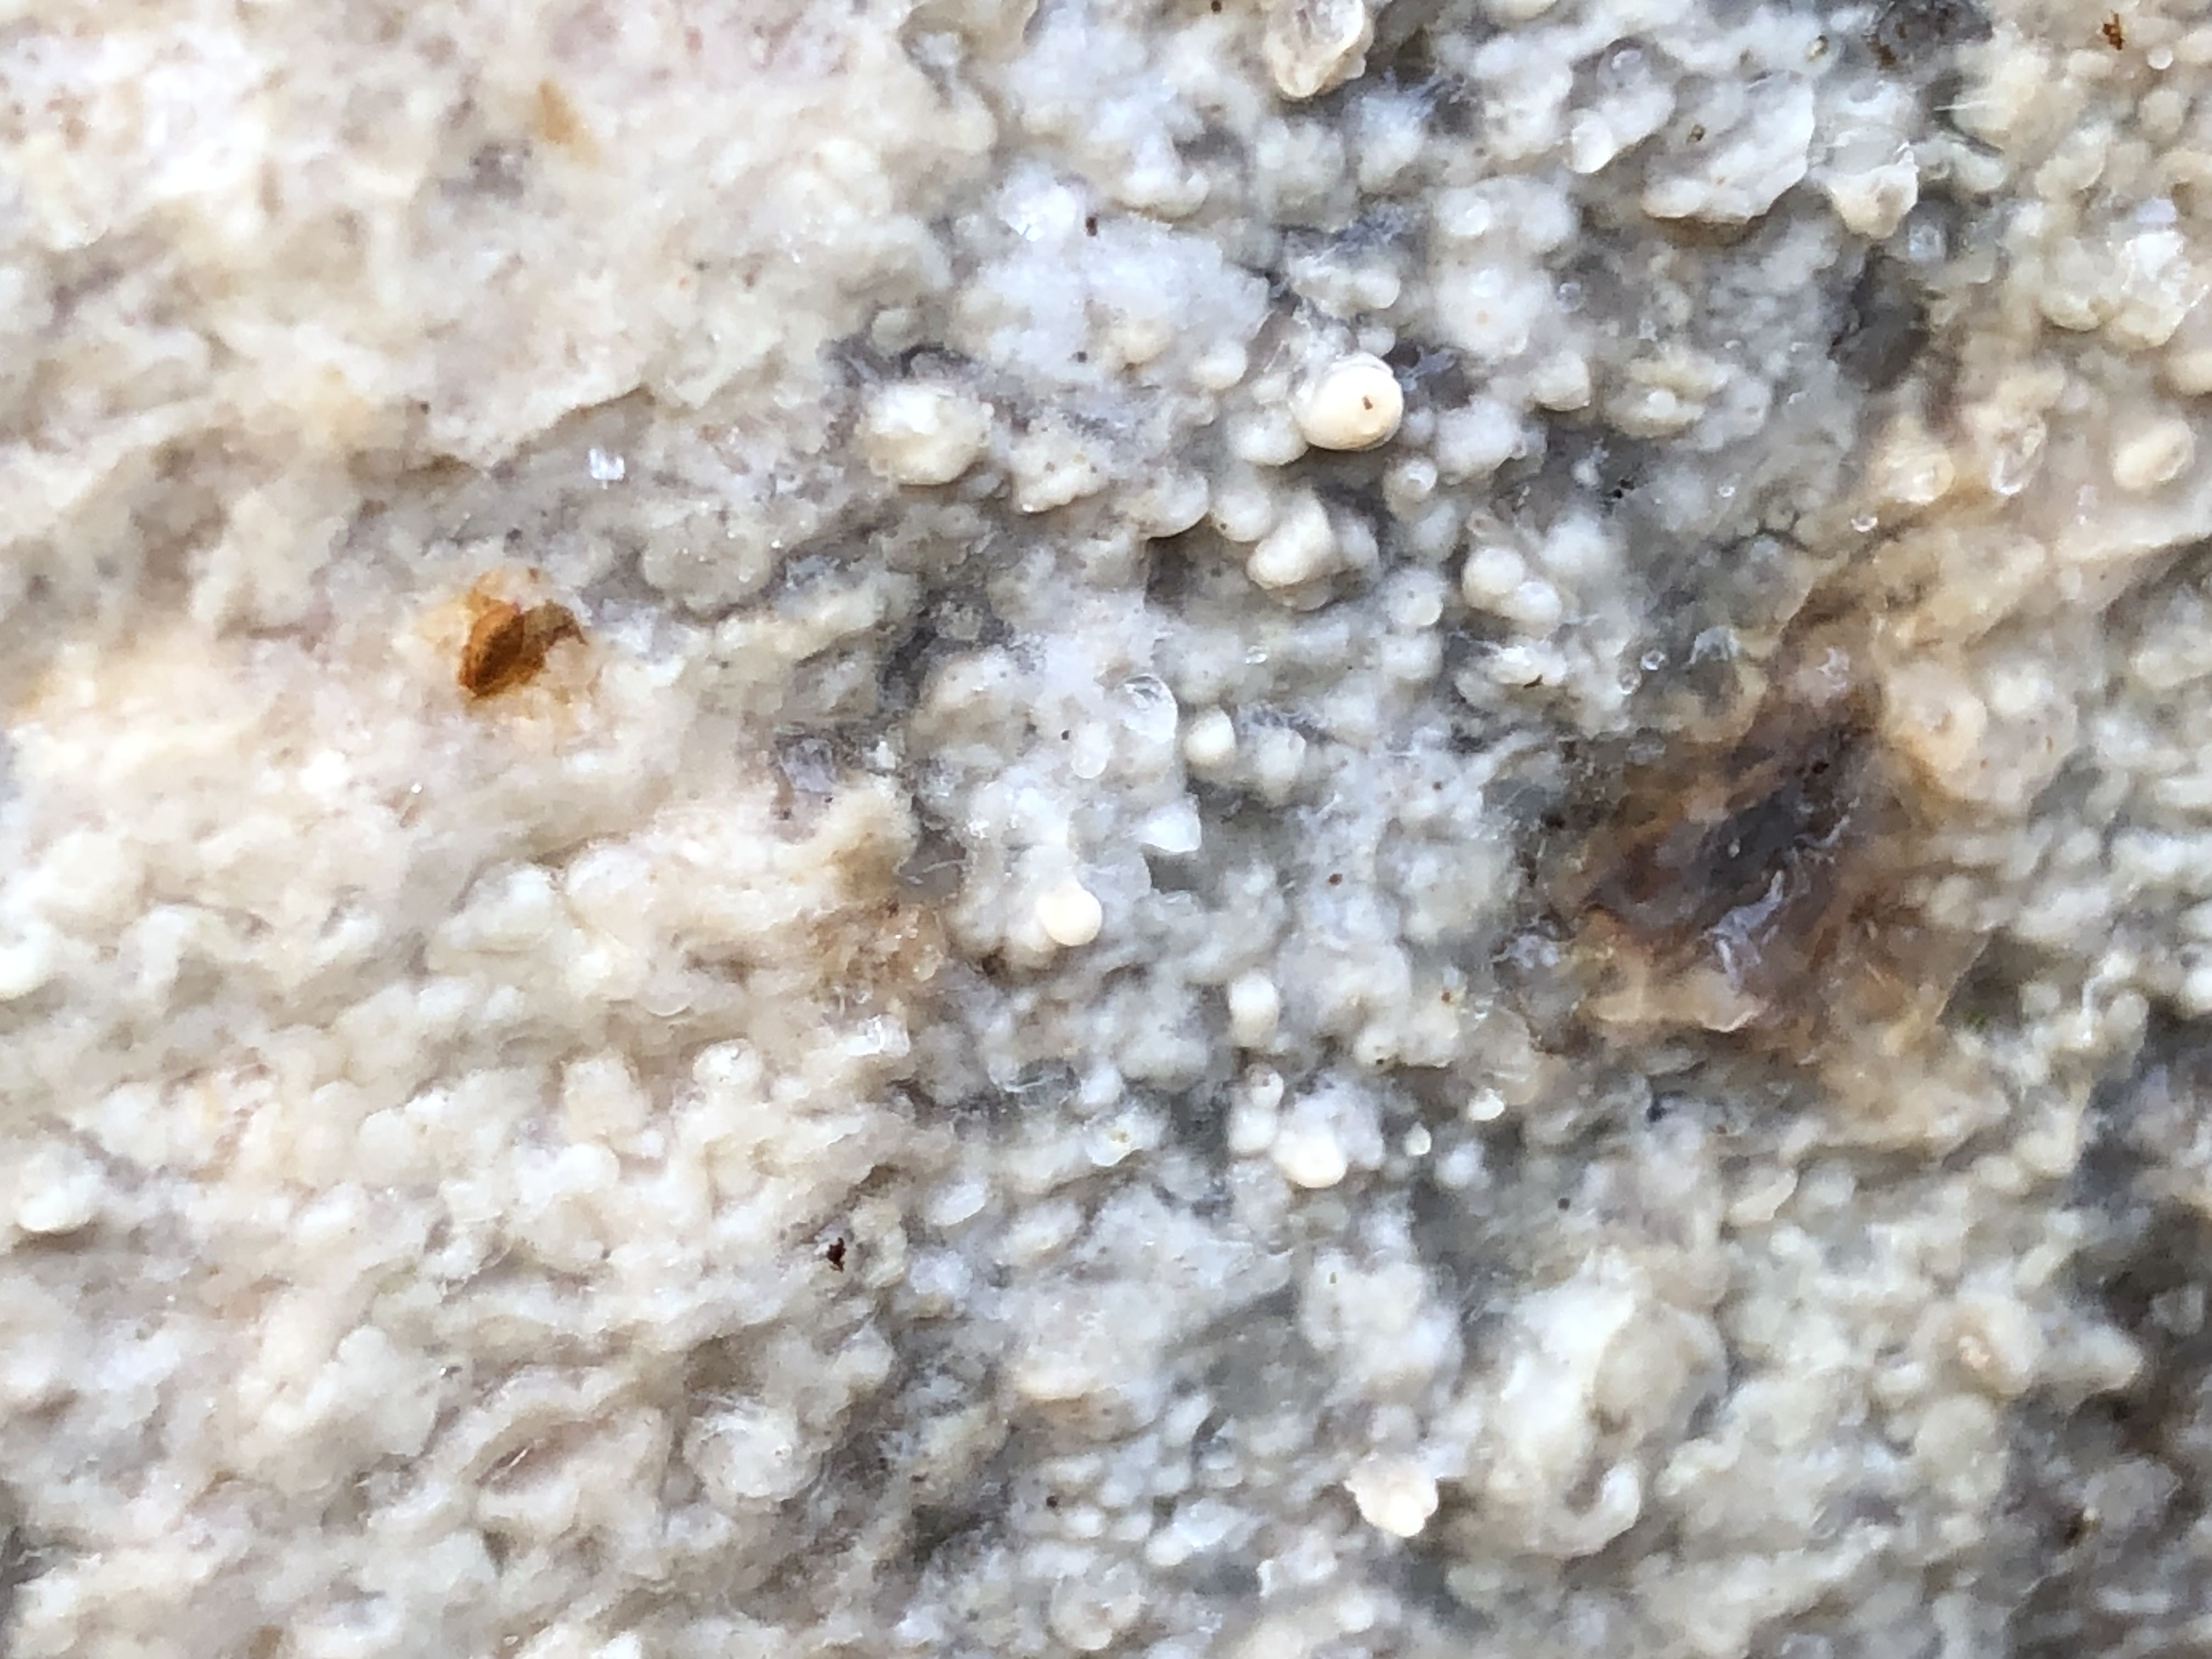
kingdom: Fungi
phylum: Basidiomycota
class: Agaricomycetes
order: Polyporales
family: Phanerochaetaceae
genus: Phlebiopsis
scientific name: Phlebiopsis gigantea
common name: kæmpebarksvamp
